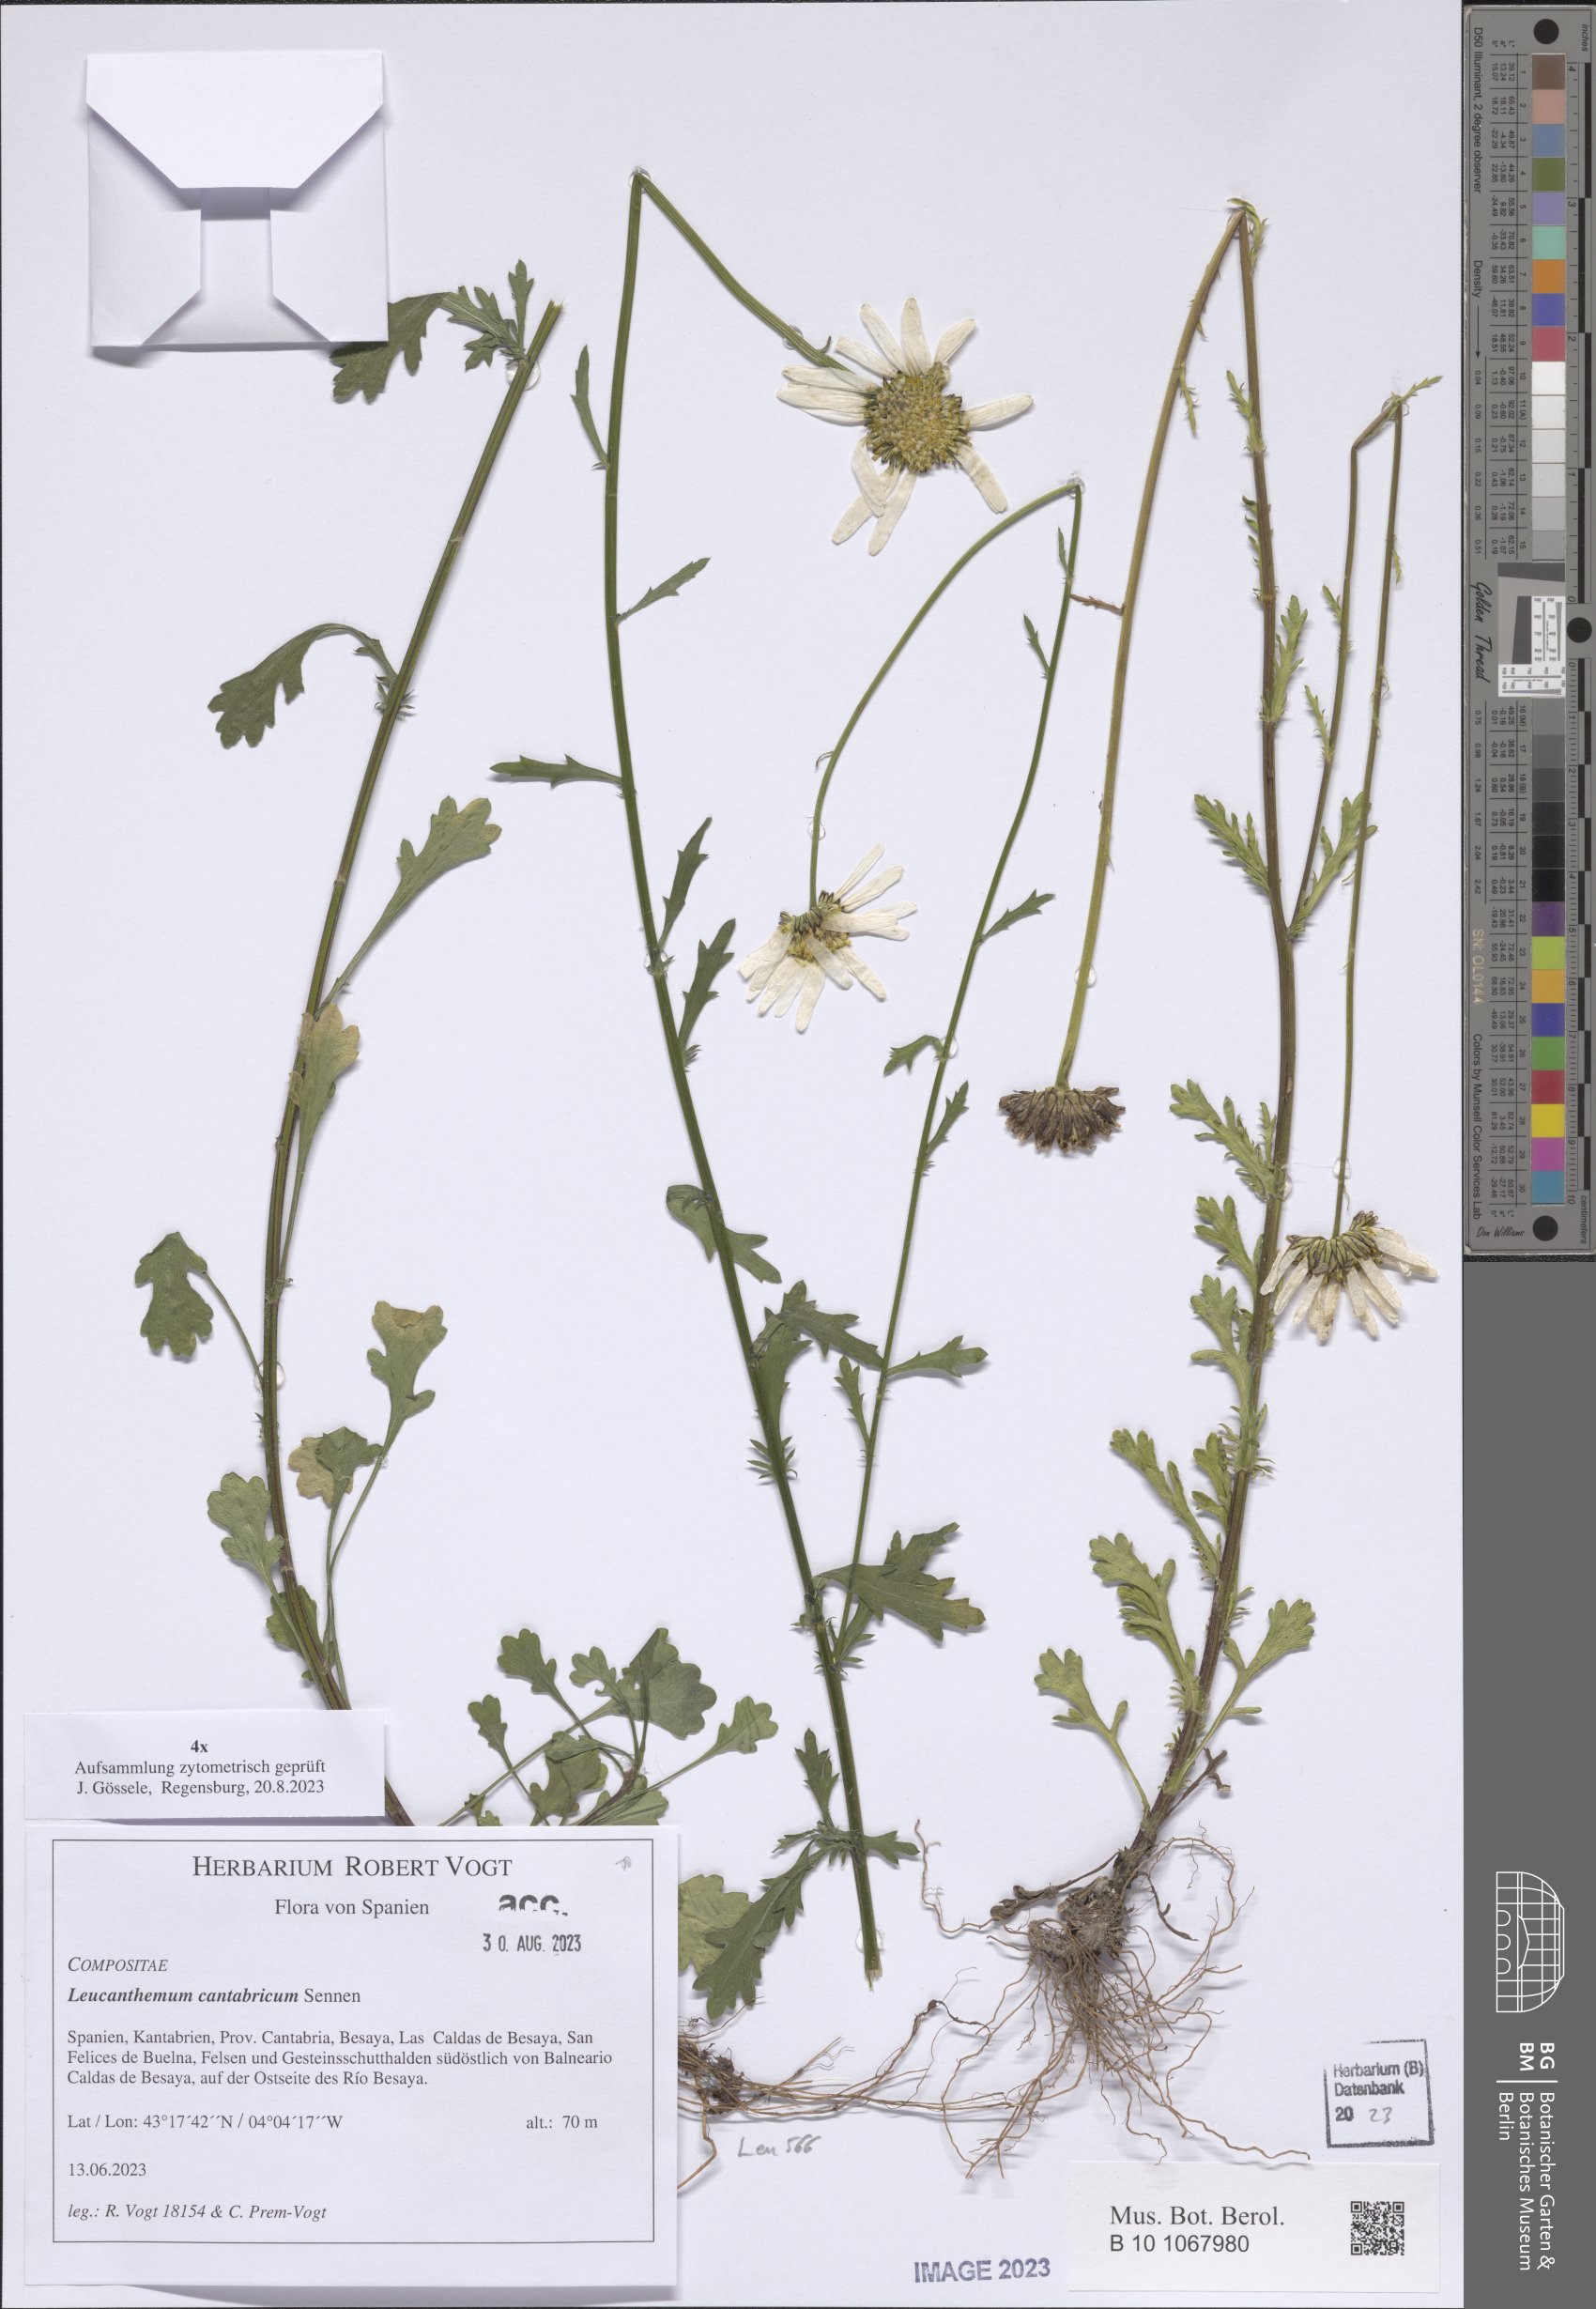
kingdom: Plantae
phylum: Tracheophyta
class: Magnoliopsida
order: Asterales
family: Asteraceae
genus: Leucanthemum
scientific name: Leucanthemum cantabricum
